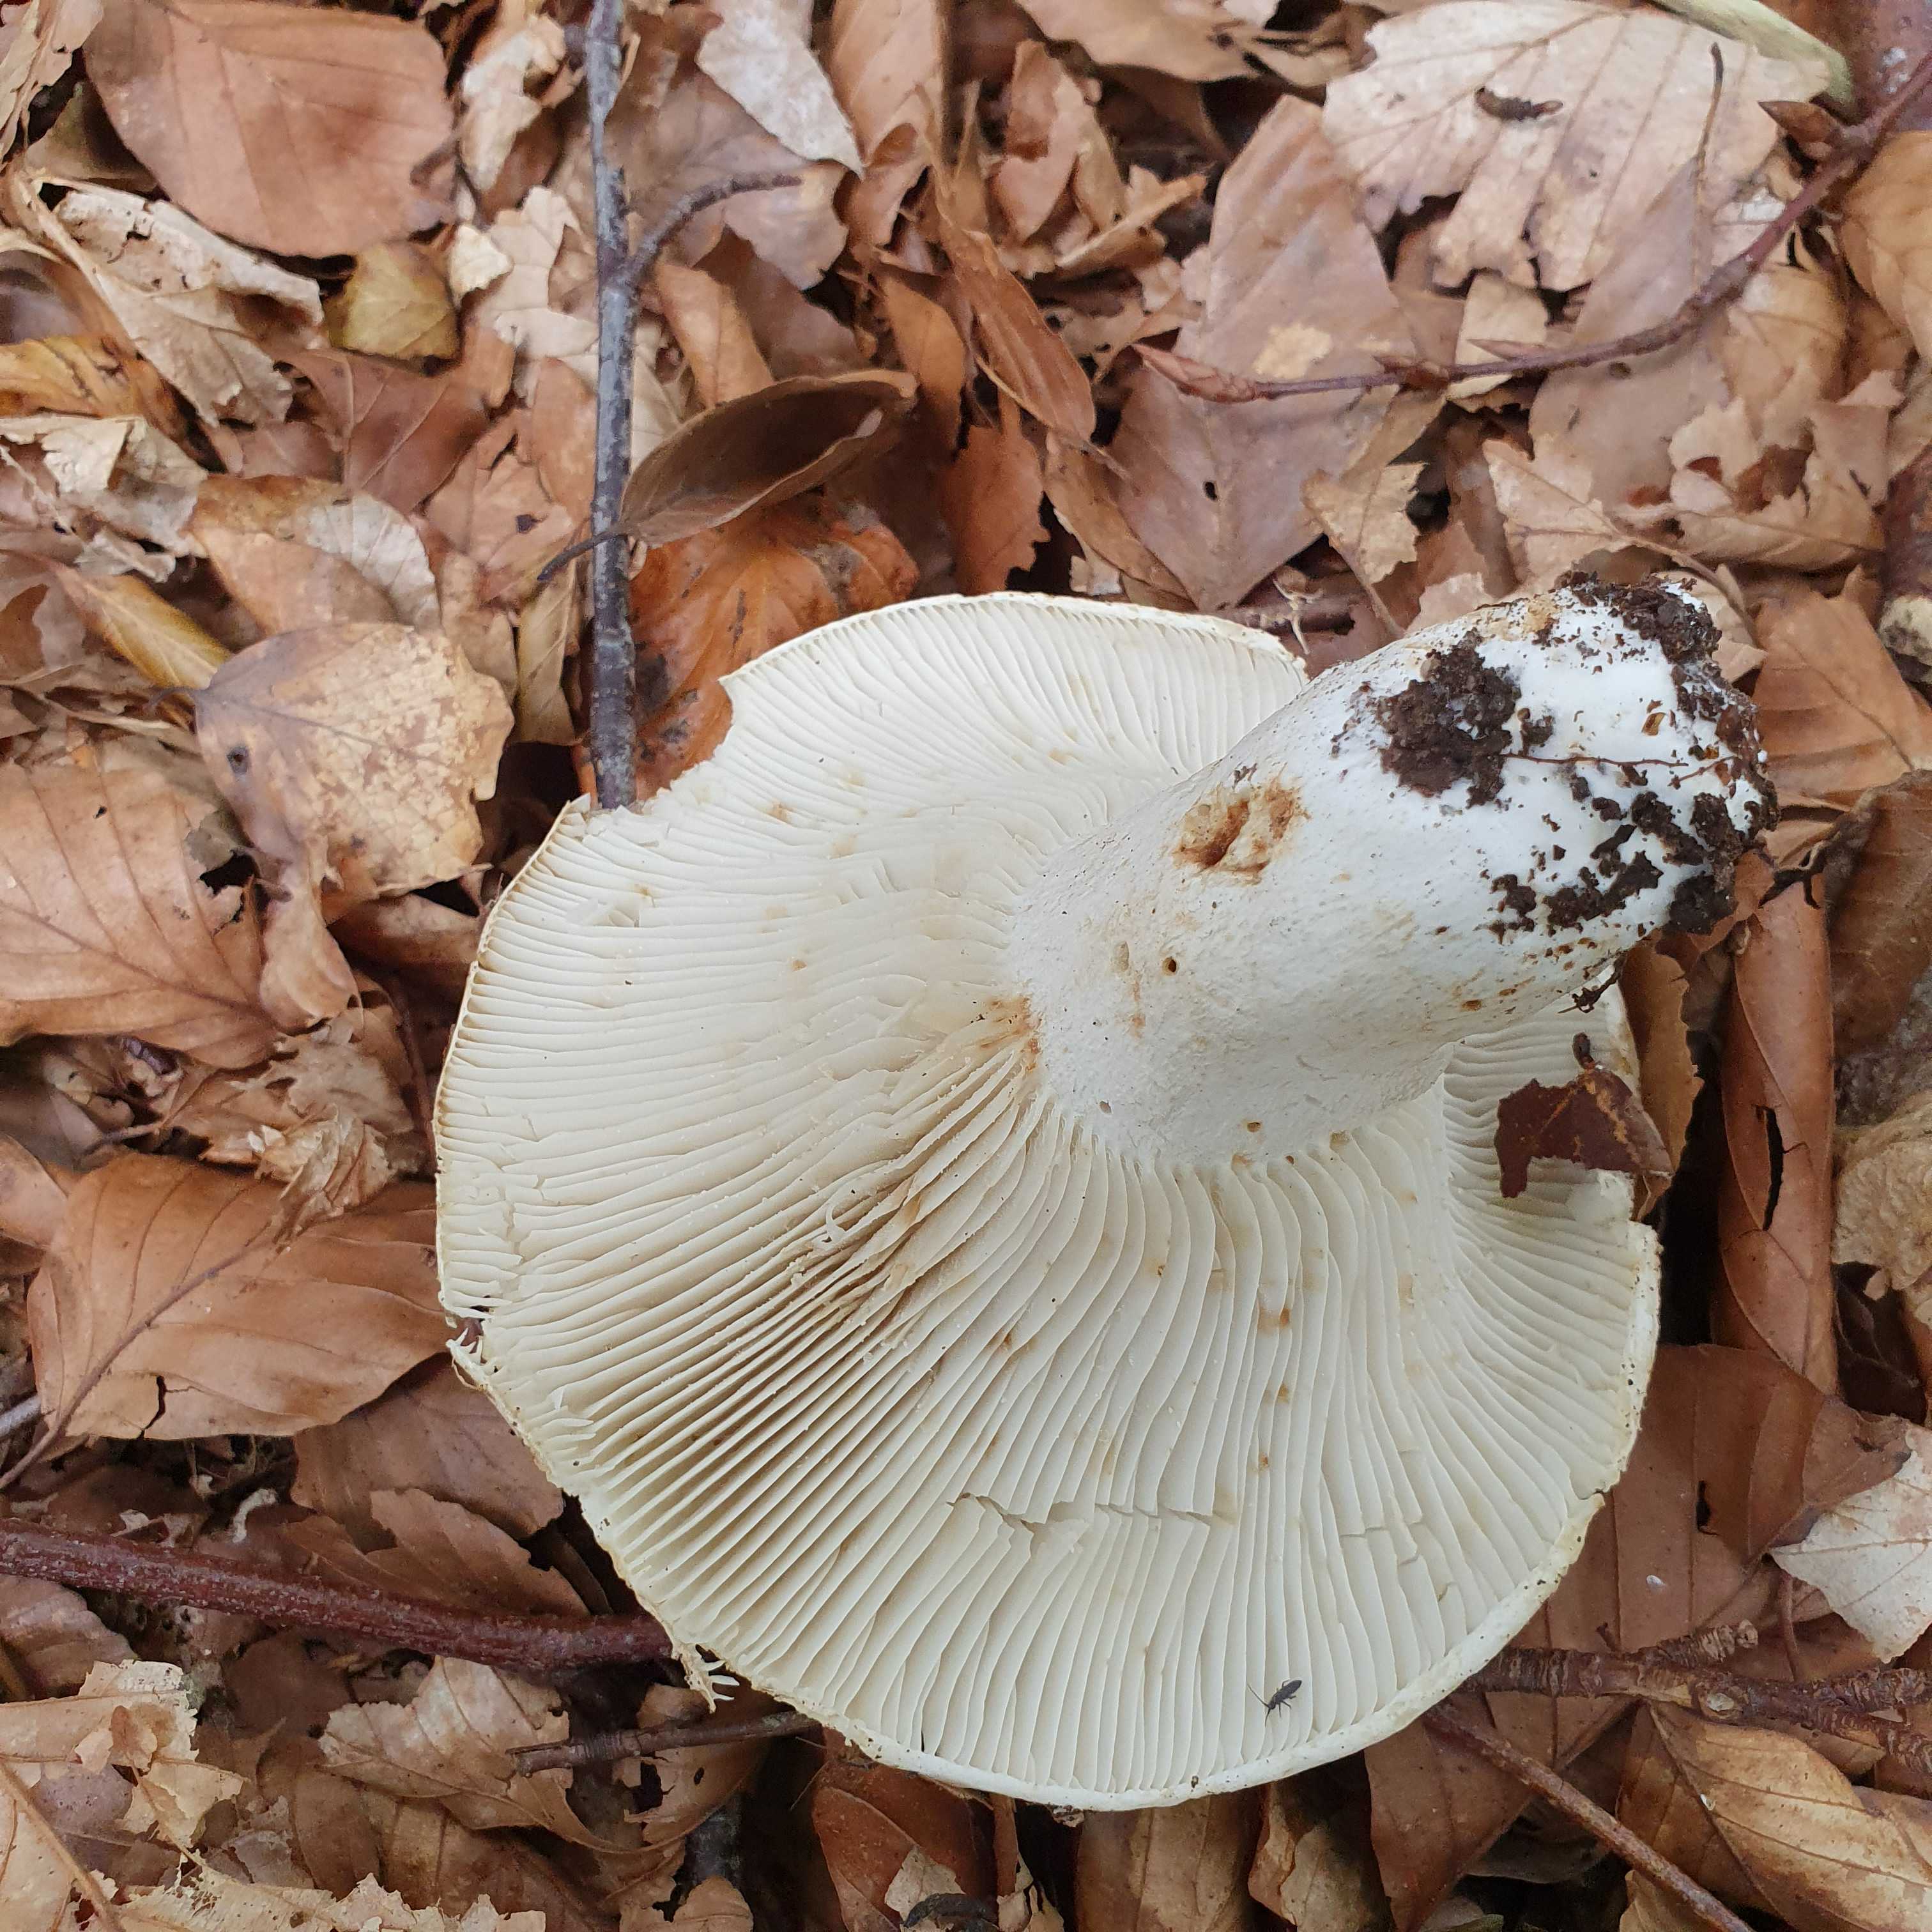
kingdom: Fungi
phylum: Basidiomycota
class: Agaricomycetes
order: Russulales
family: Russulaceae
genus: Russula
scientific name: Russula delica
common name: almindelig tragt-skørhat
